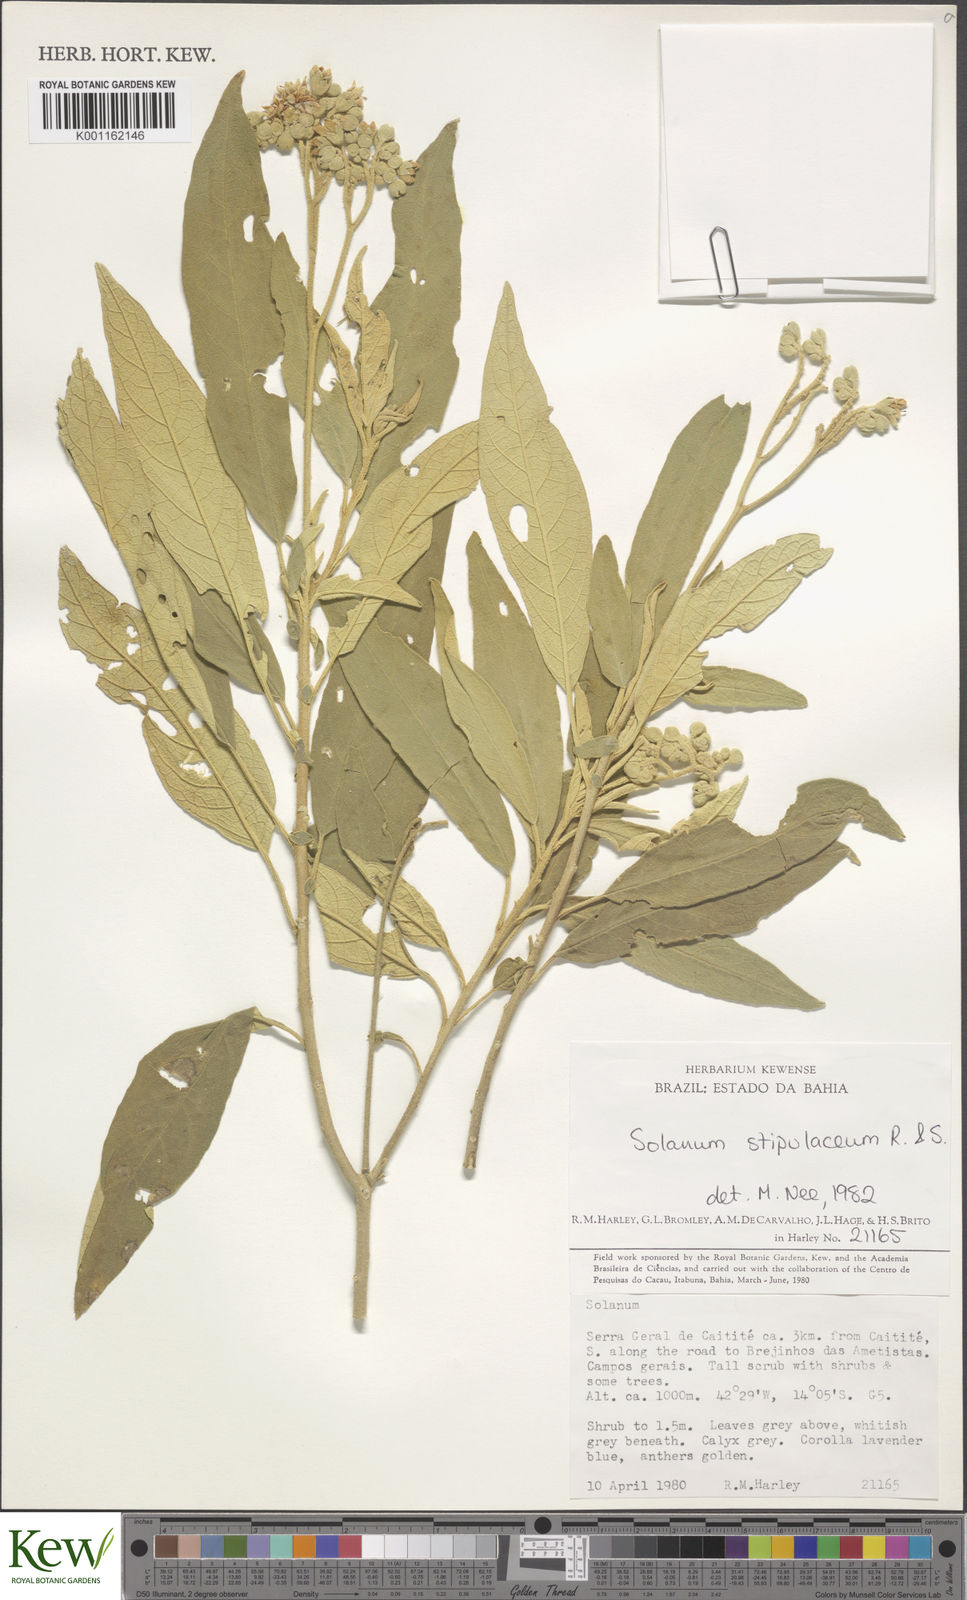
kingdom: Plantae
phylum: Tracheophyta
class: Magnoliopsida
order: Solanales
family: Solanaceae
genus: Solanum
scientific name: Solanum stipulaceum
